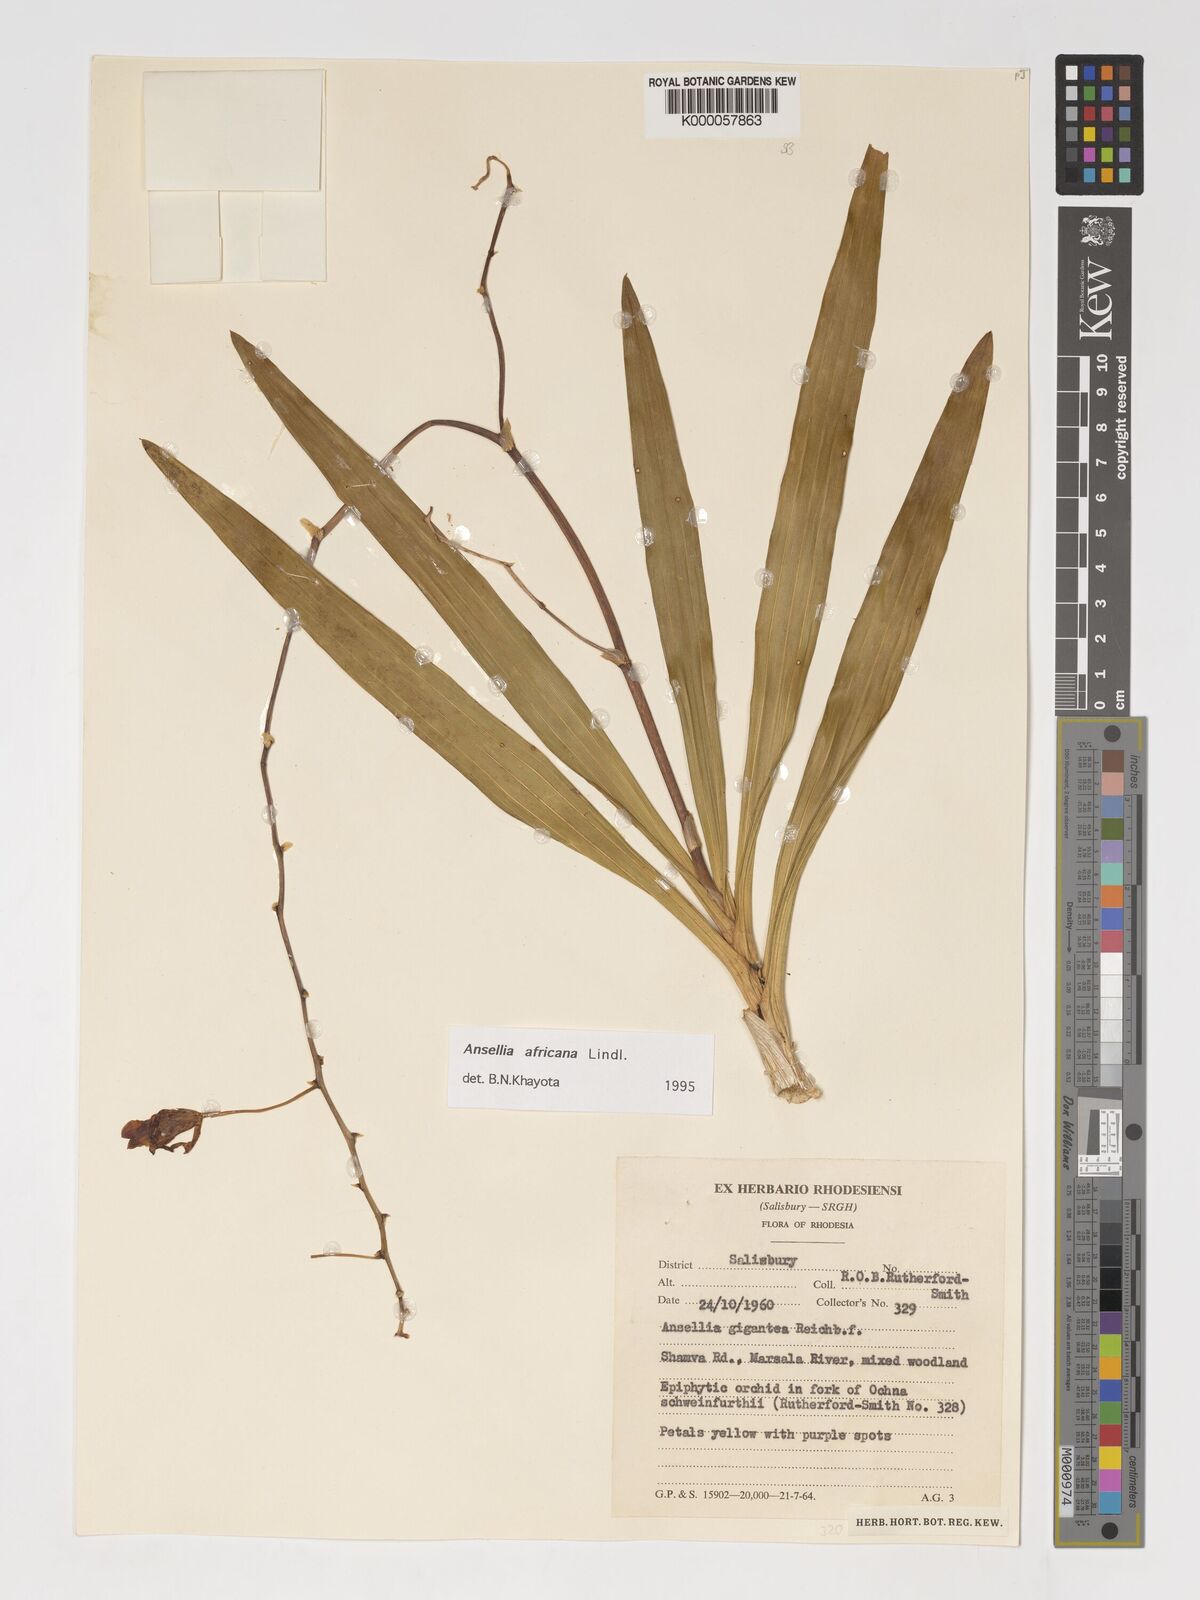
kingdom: Plantae
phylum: Tracheophyta
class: Liliopsida
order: Asparagales
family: Orchidaceae
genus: Ansellia
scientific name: Ansellia africana
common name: African ansellia
